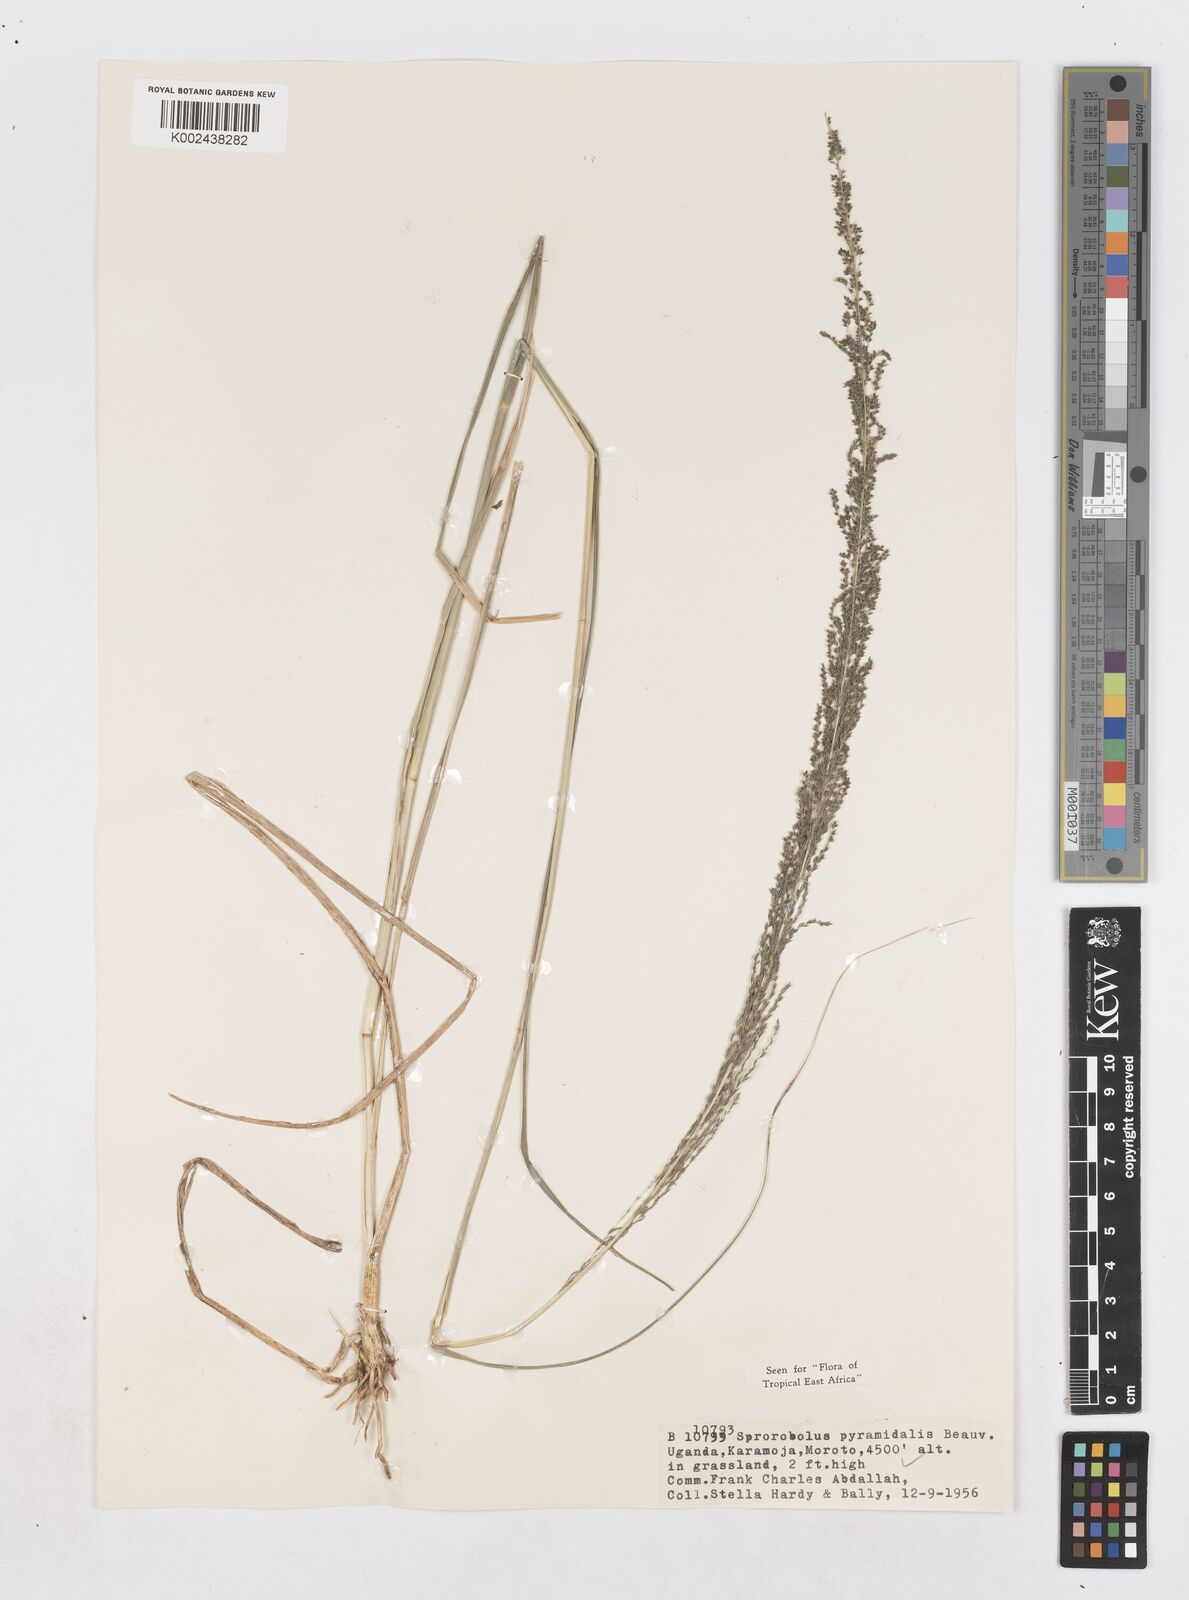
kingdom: Plantae
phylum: Tracheophyta
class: Liliopsida
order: Poales
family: Poaceae
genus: Sporobolus
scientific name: Sporobolus pyramidalis
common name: West indian dropseed
